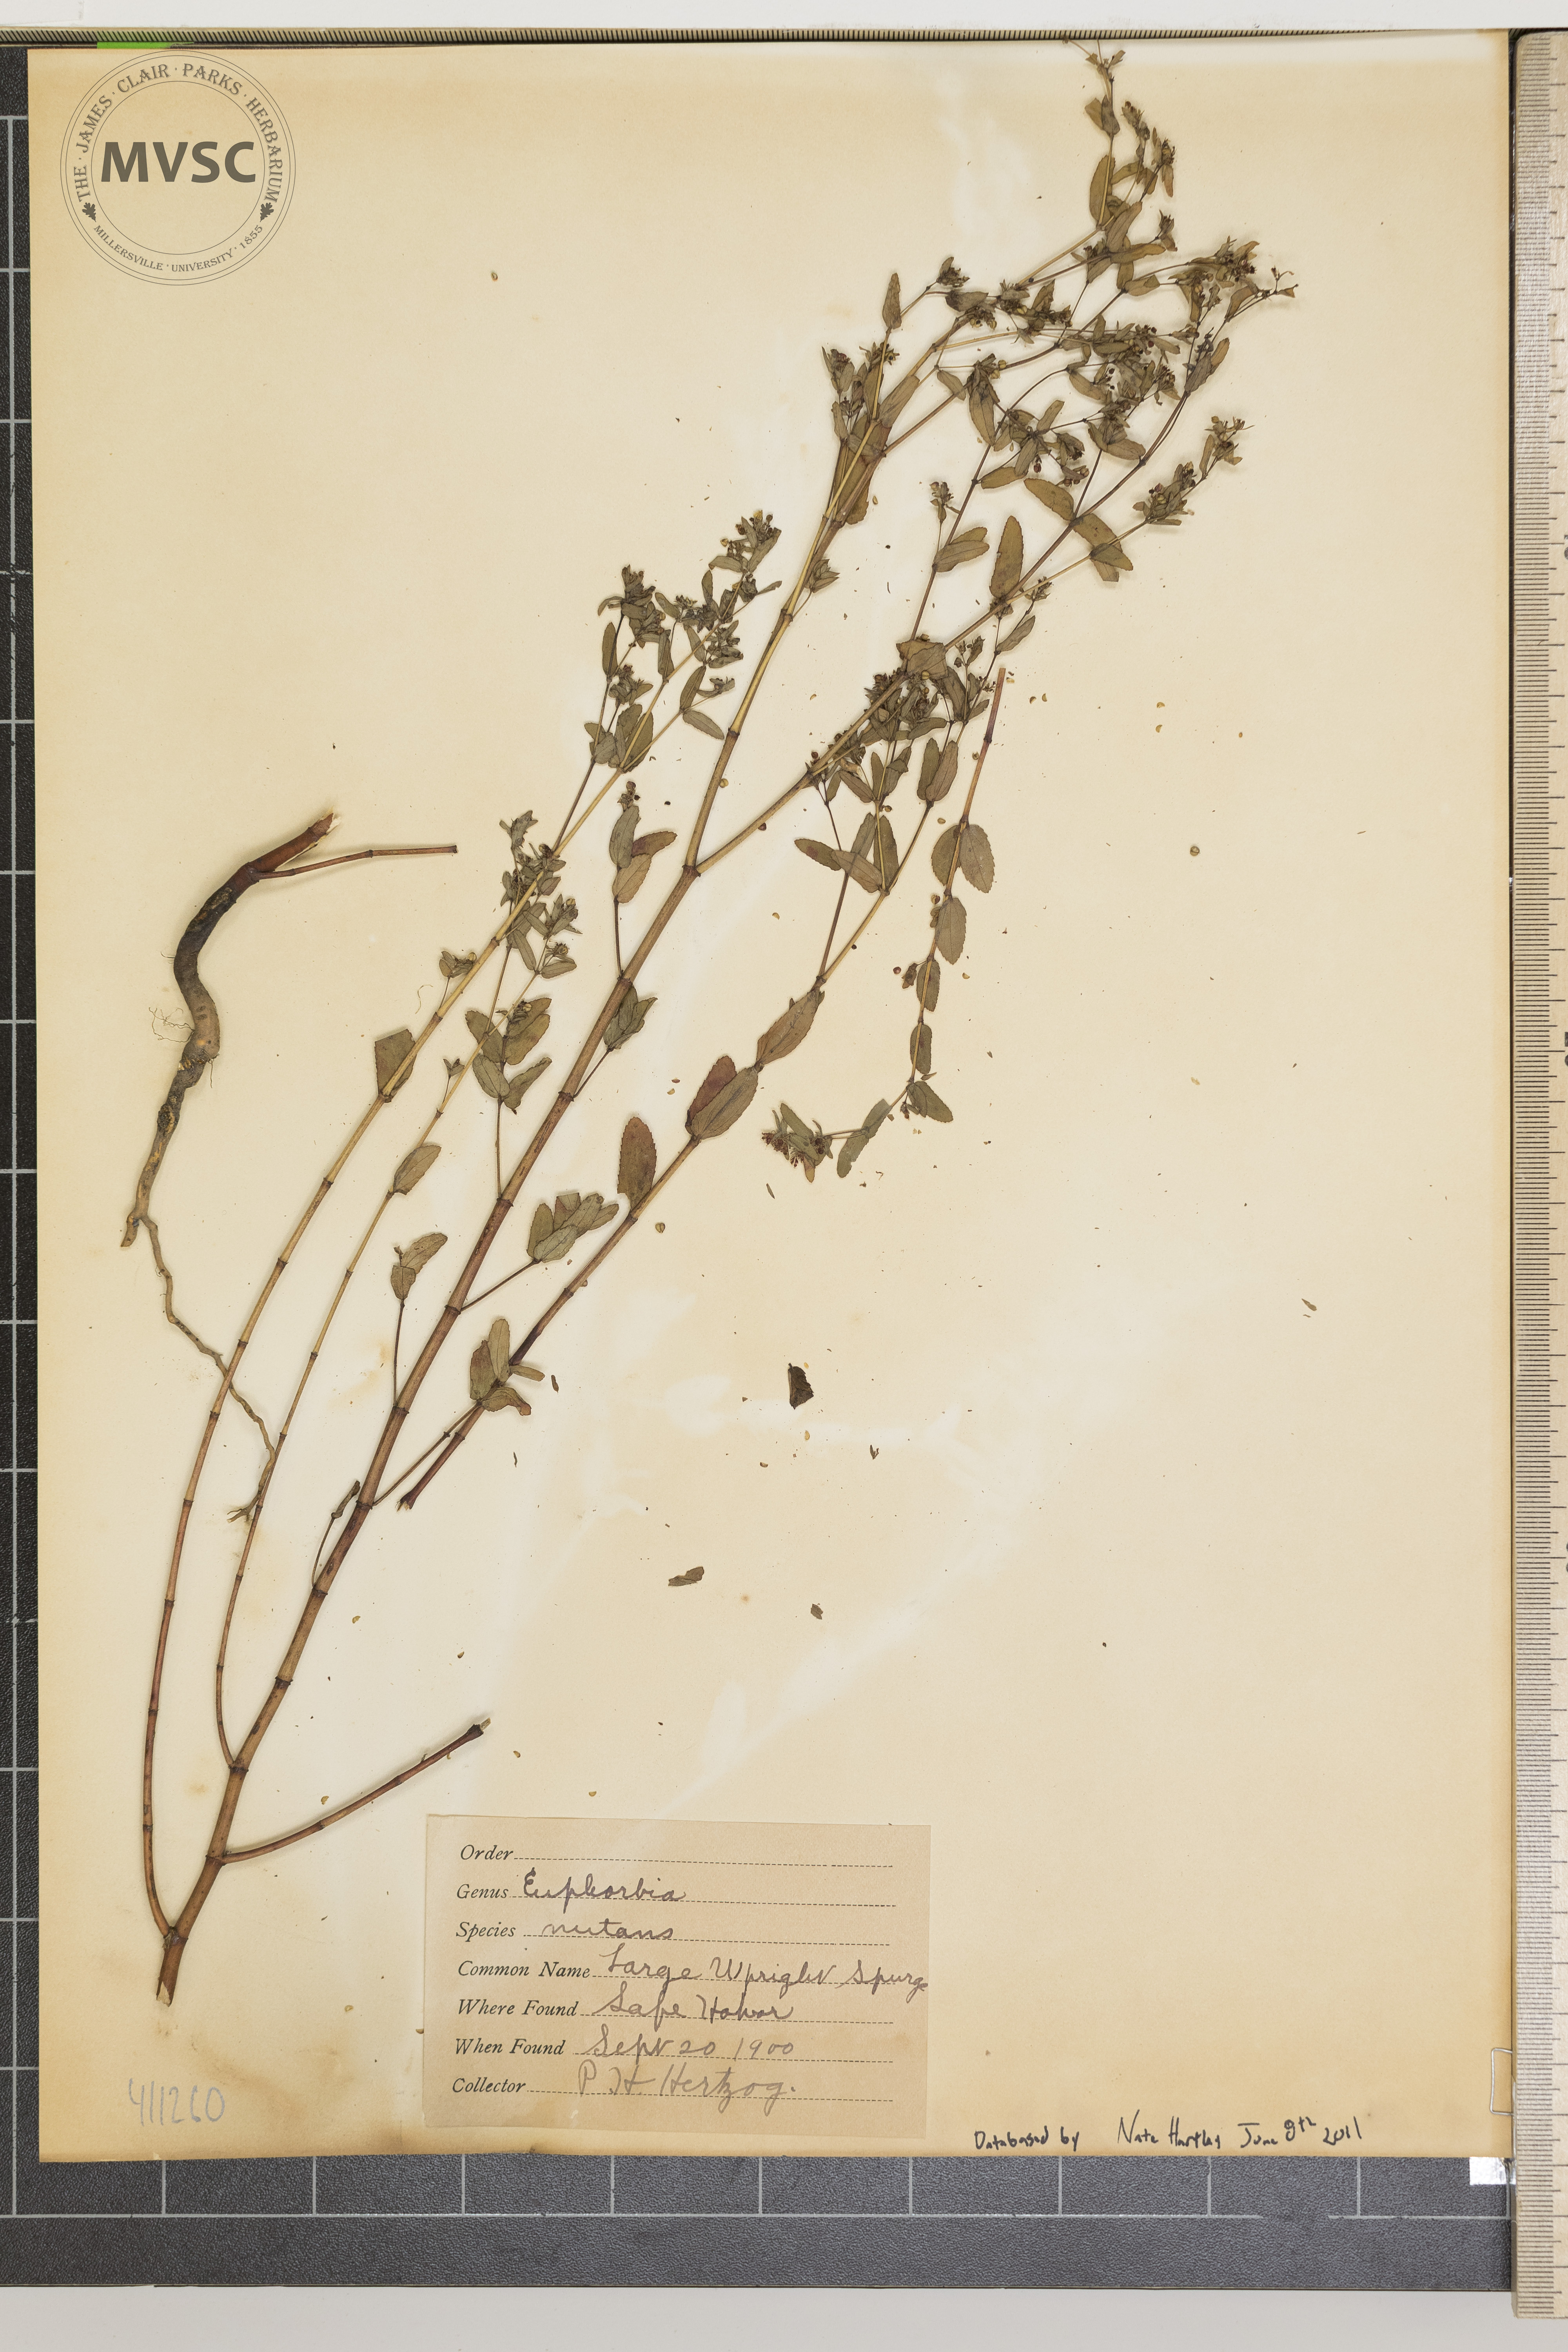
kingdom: Plantae
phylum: Tracheophyta
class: Magnoliopsida
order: Malpighiales
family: Euphorbiaceae
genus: Euphorbia
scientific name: Euphorbia nutans
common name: Eyebane
